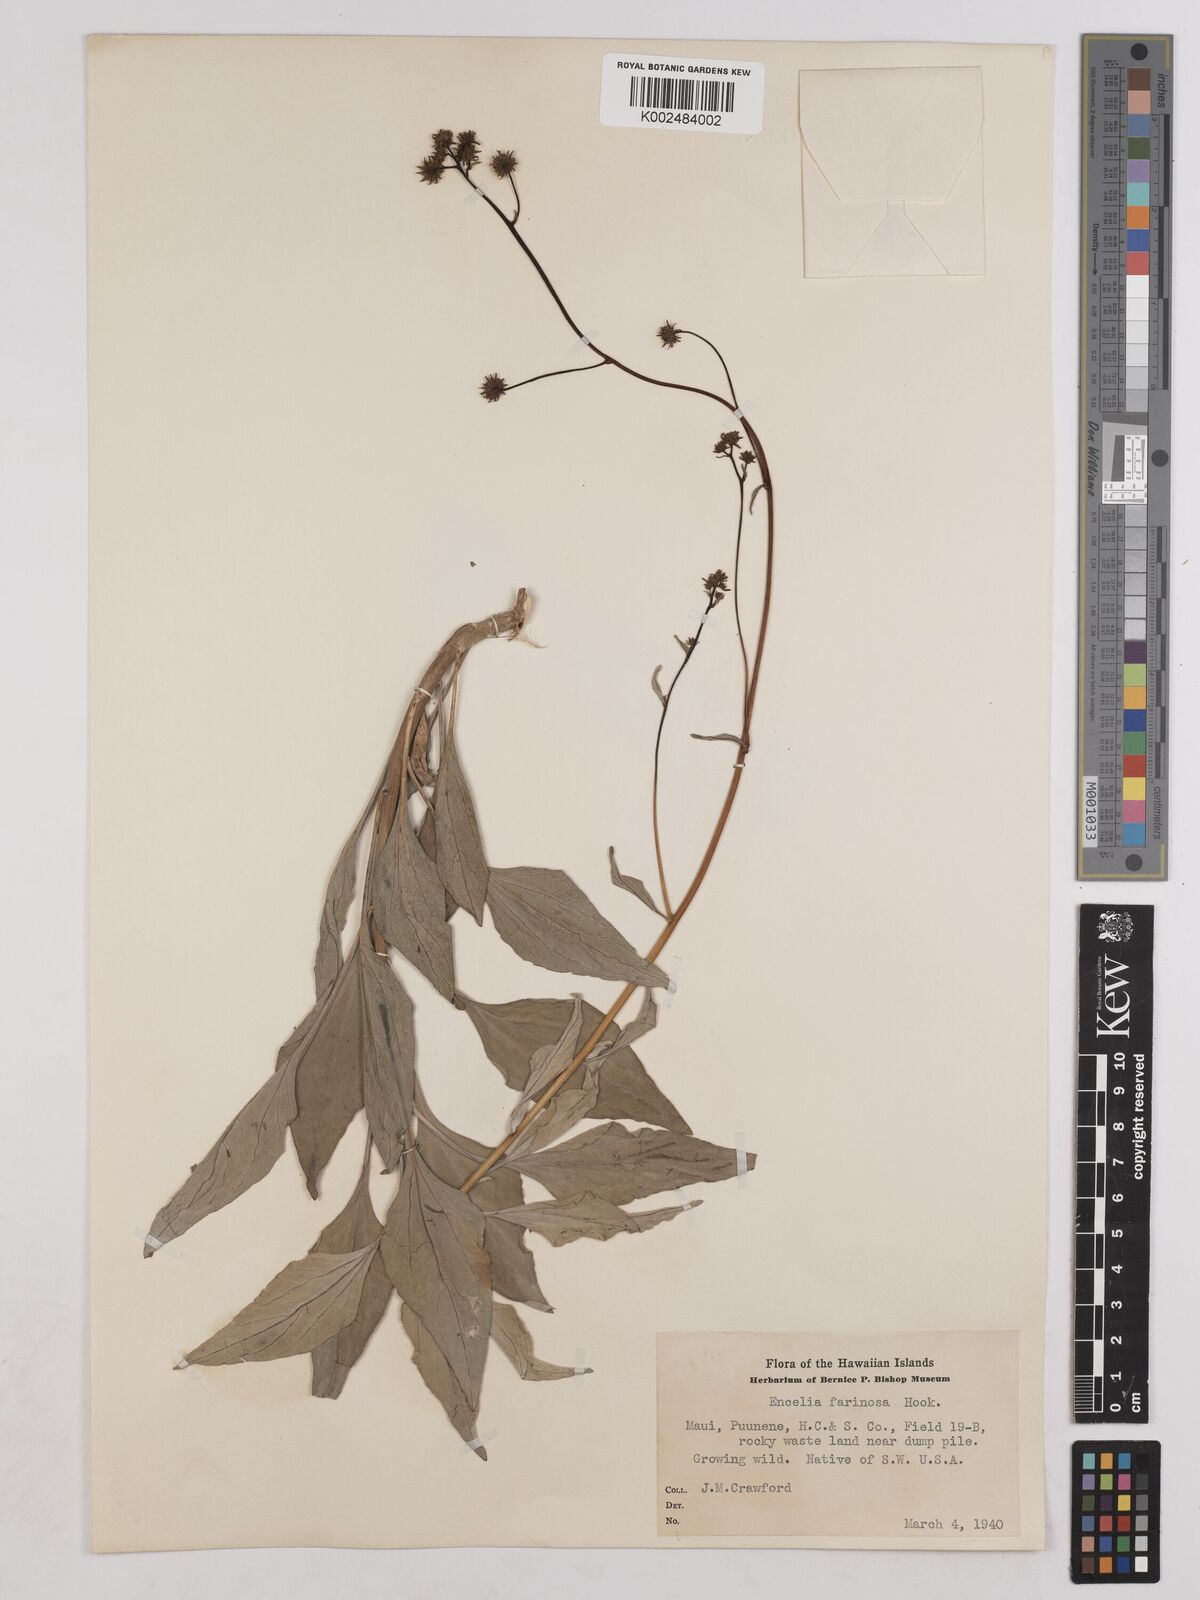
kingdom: Plantae
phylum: Tracheophyta
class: Magnoliopsida
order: Asterales
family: Asteraceae
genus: Encelia
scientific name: Encelia farinosa
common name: Brittlebush
